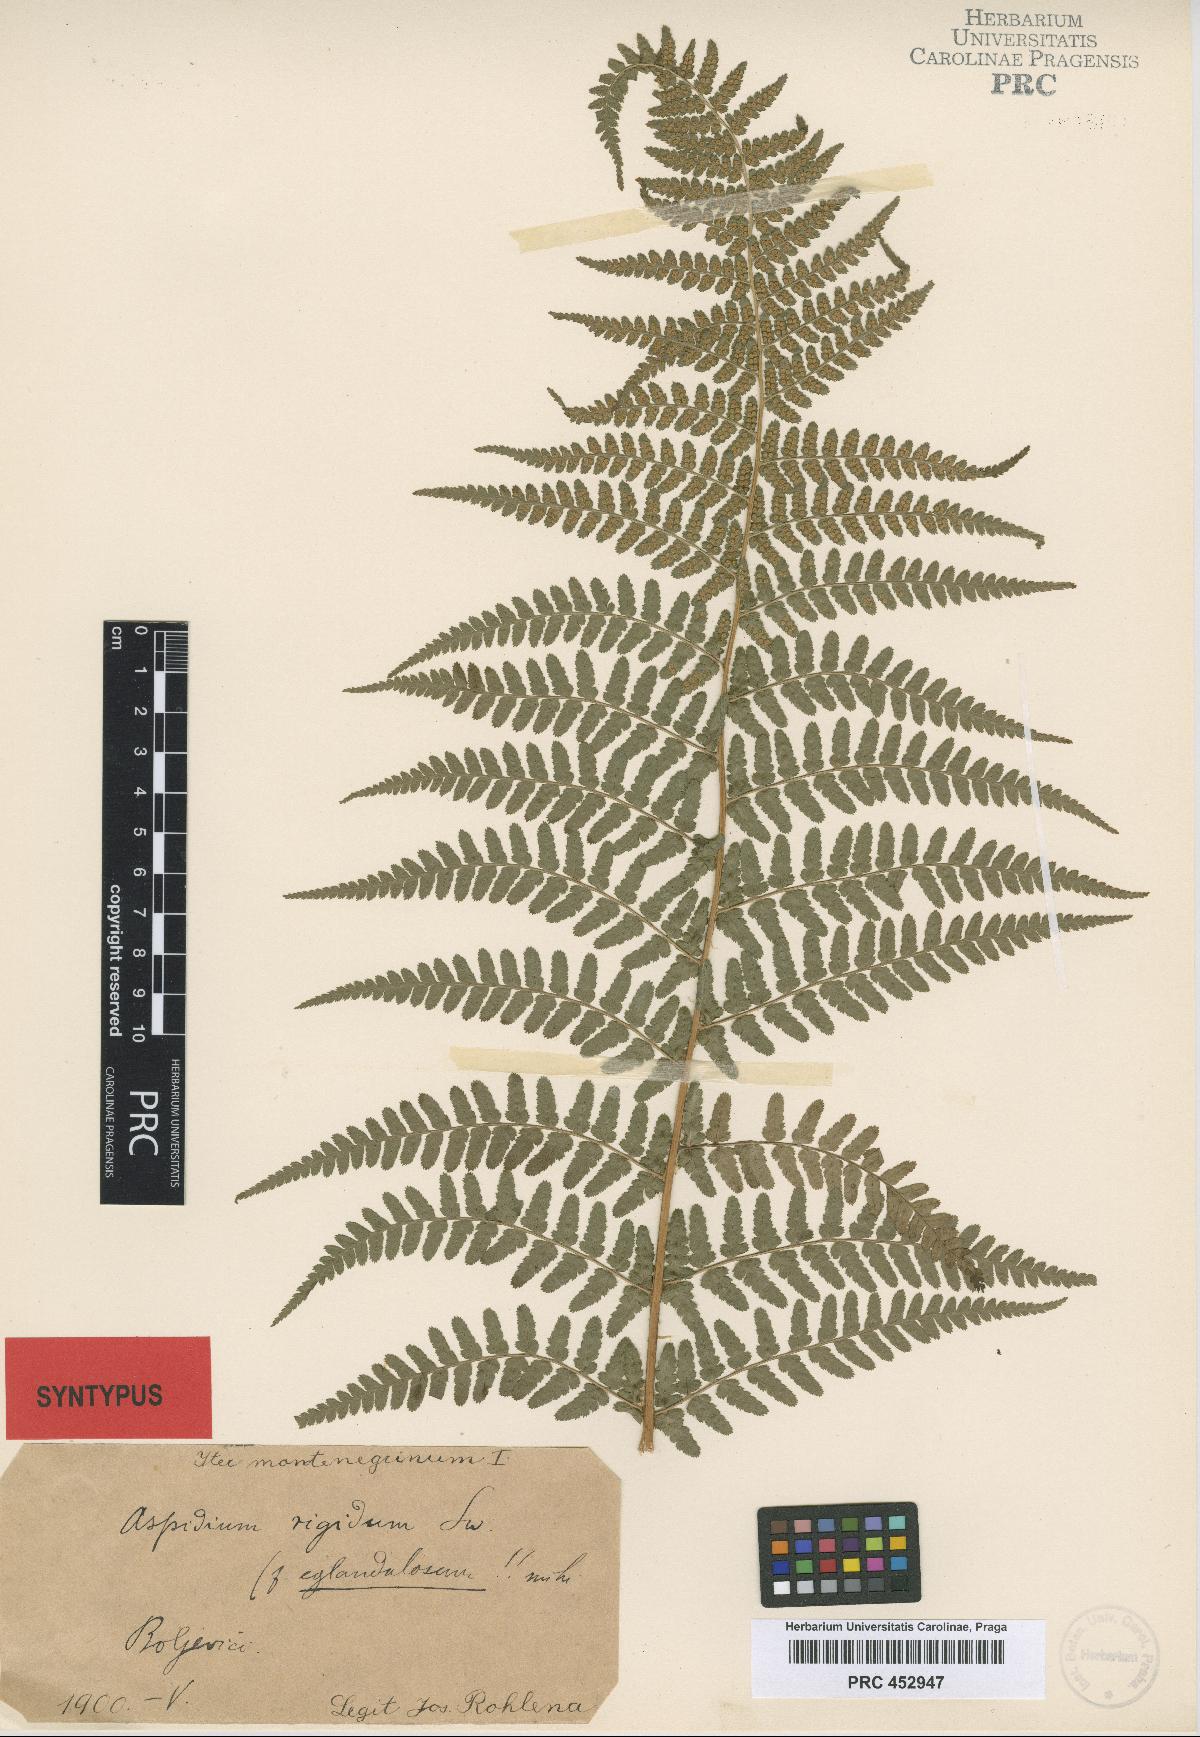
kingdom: Plantae
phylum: Tracheophyta
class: Polypodiopsida
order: Polypodiales
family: Dryopteridaceae
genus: Dryopteris
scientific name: Dryopteris villarii
